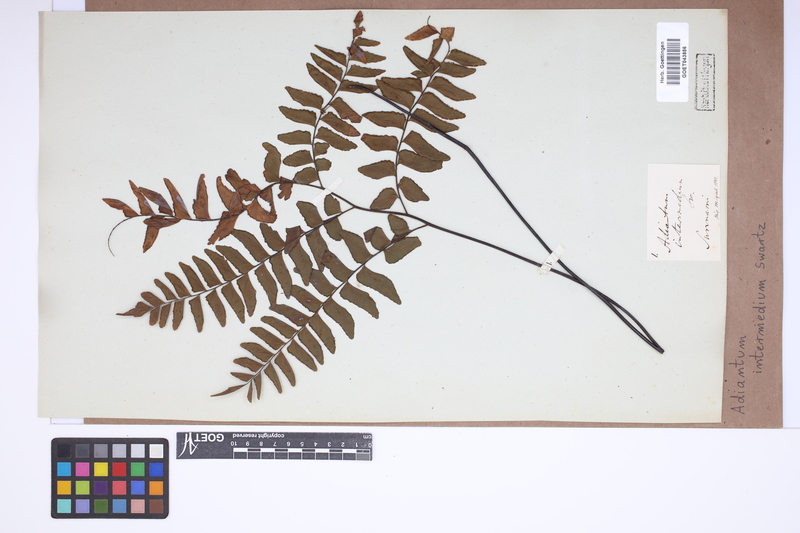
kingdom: Plantae
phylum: Tracheophyta
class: Polypodiopsida
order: Polypodiales
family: Pteridaceae
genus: Adiantum
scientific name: Adiantum intermedium
